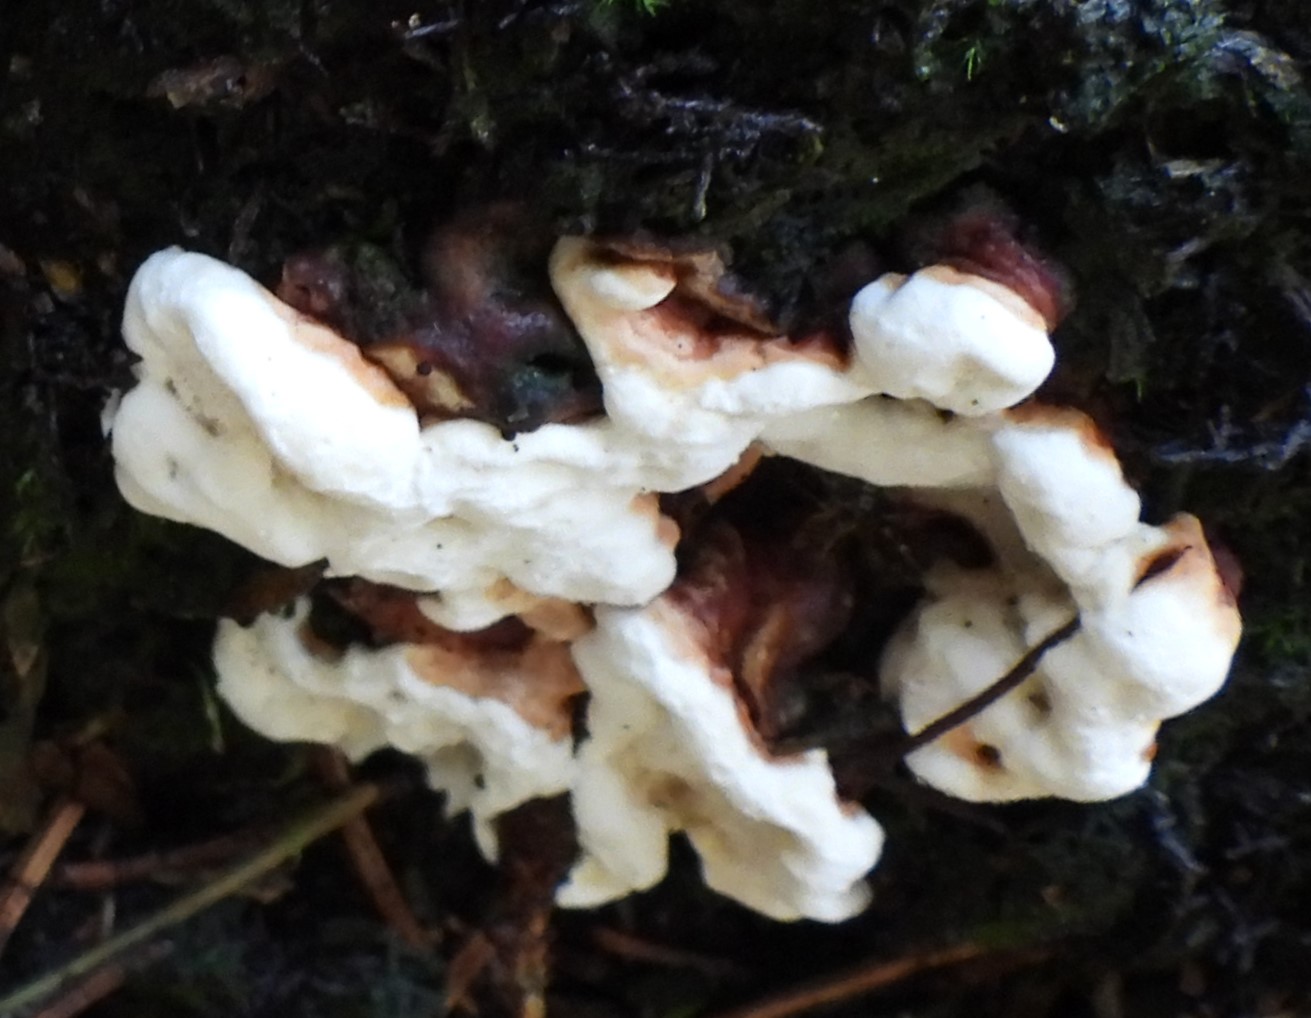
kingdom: Fungi
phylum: Basidiomycota
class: Agaricomycetes
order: Russulales
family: Bondarzewiaceae
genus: Heterobasidion
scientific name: Heterobasidion annosum
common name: almindelig rodfordærver
